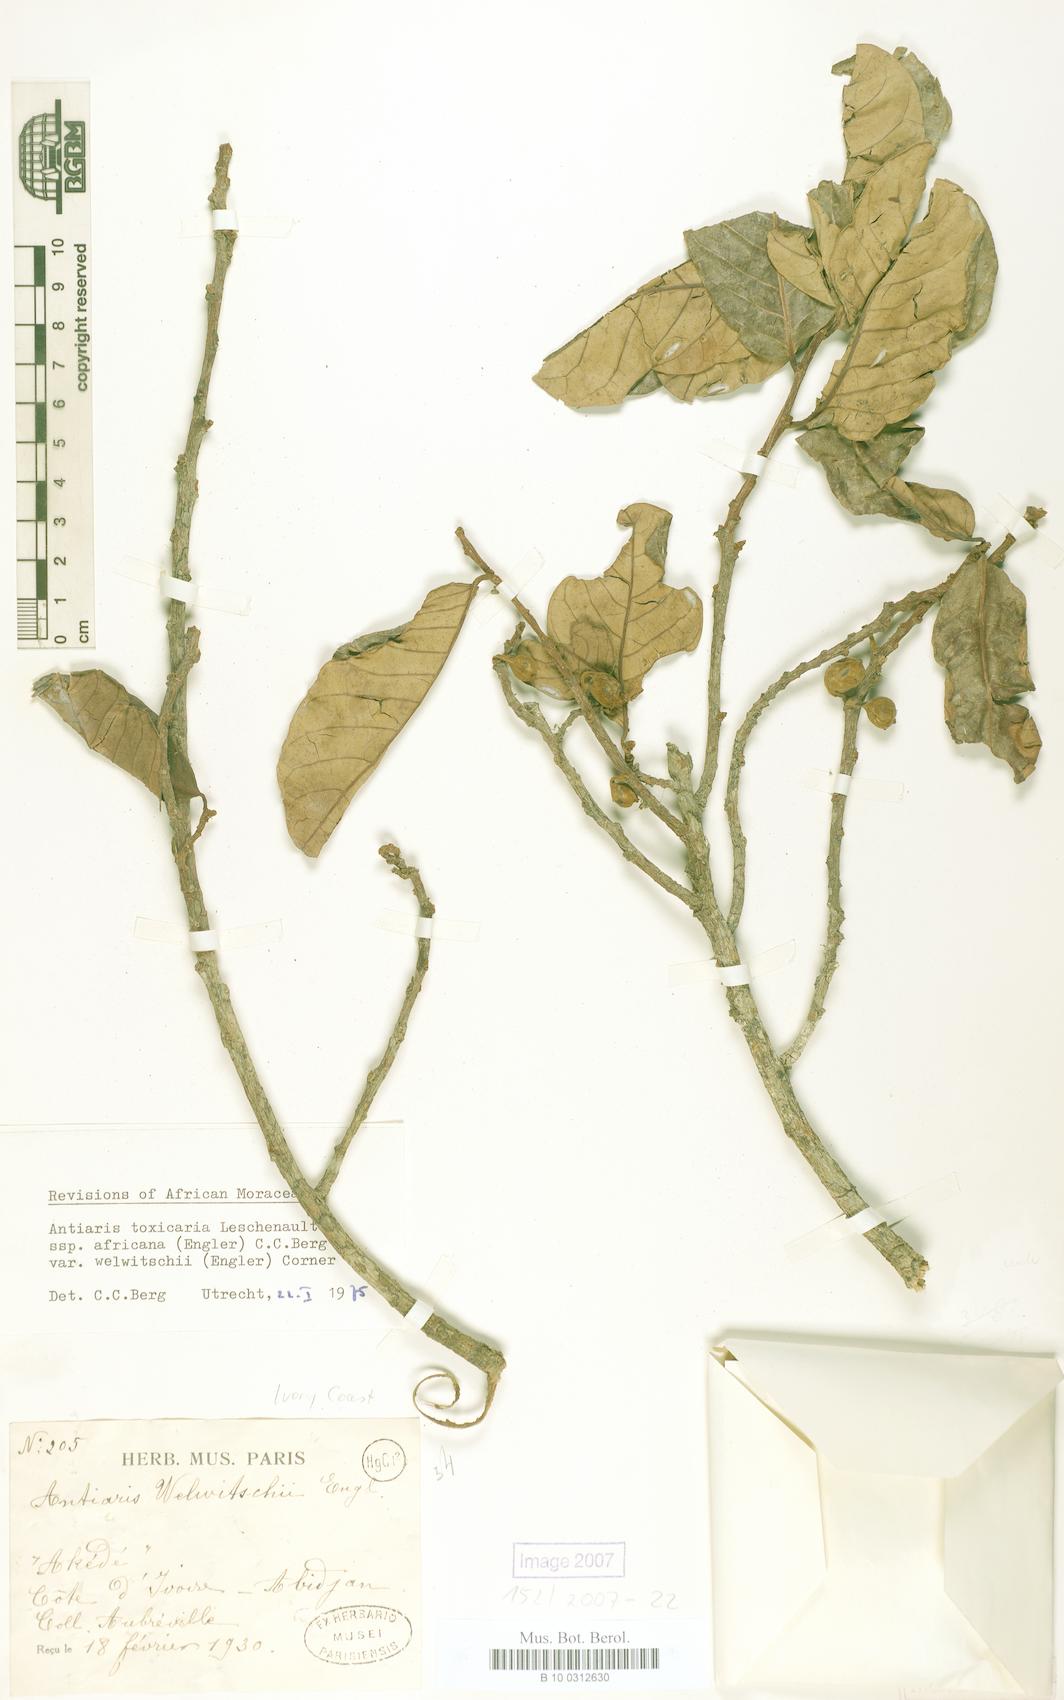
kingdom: Plantae
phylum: Tracheophyta
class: Magnoliopsida
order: Rosales
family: Moraceae
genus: Antiaris
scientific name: Antiaris toxicaria
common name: Sackingtree
